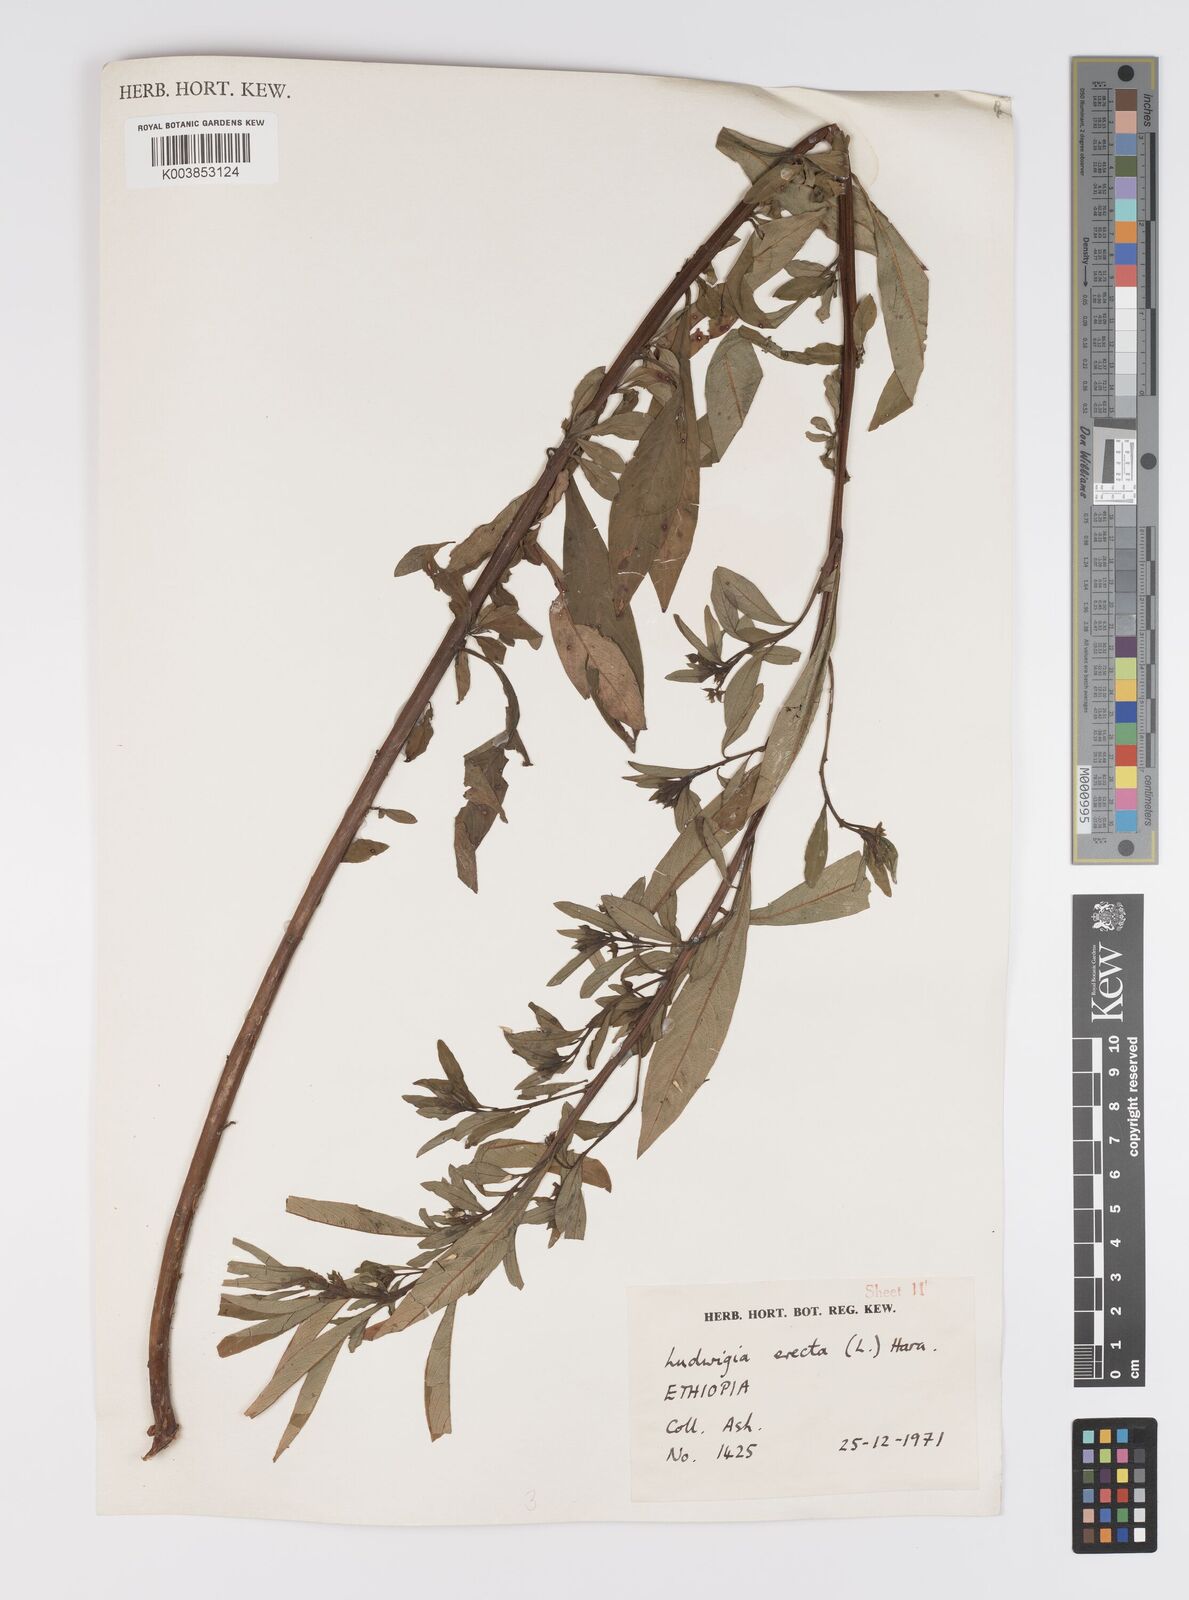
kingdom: Plantae
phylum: Tracheophyta
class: Magnoliopsida
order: Myrtales
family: Onagraceae
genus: Ludwigia
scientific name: Ludwigia erecta
